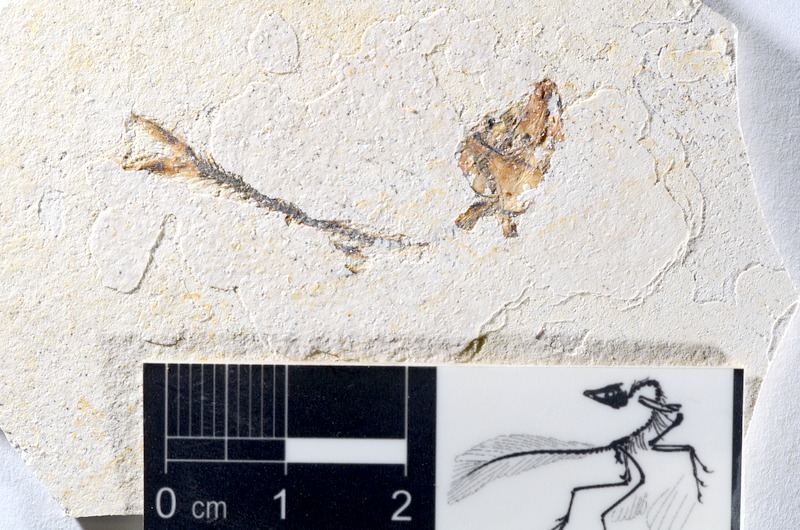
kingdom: Animalia
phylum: Chordata
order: Salmoniformes
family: Orthogonikleithridae
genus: Orthogonikleithrus
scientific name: Orthogonikleithrus hoelli
